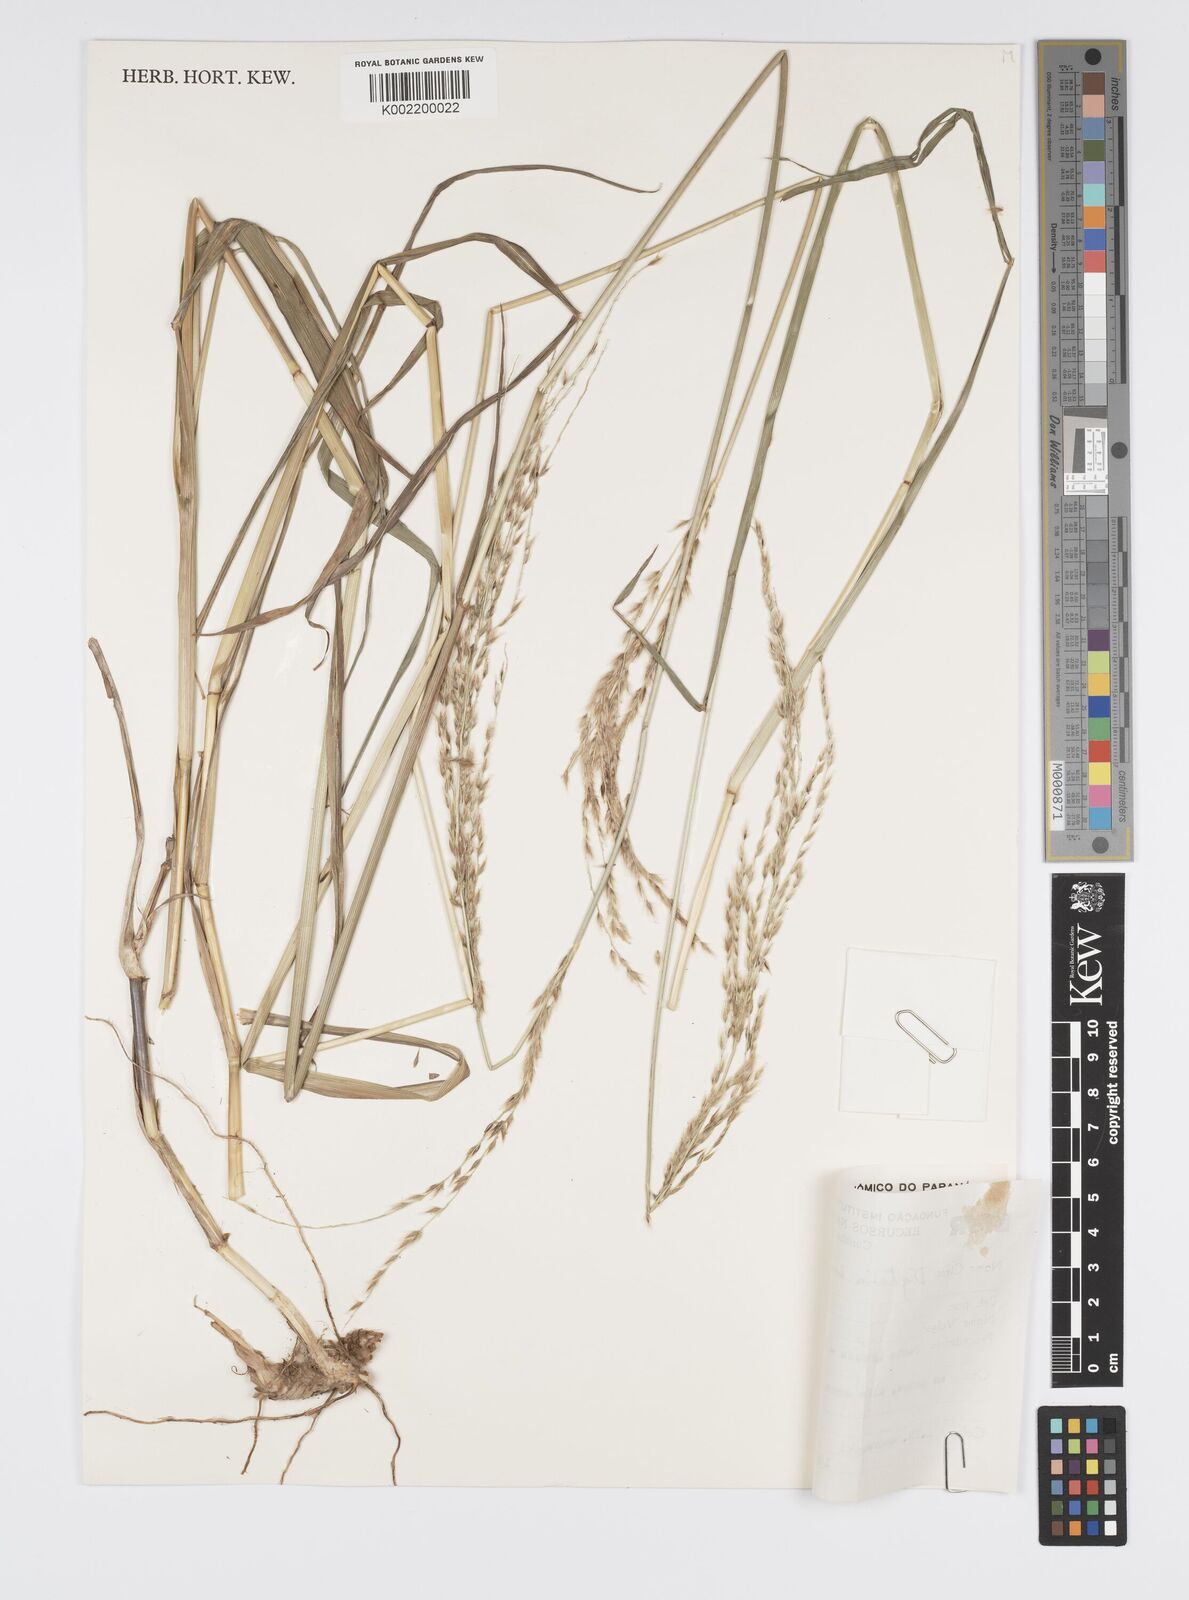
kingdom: Plantae
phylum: Tracheophyta
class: Liliopsida
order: Poales
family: Poaceae
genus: Digitaria
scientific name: Digitaria insularis
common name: Sourgrass
